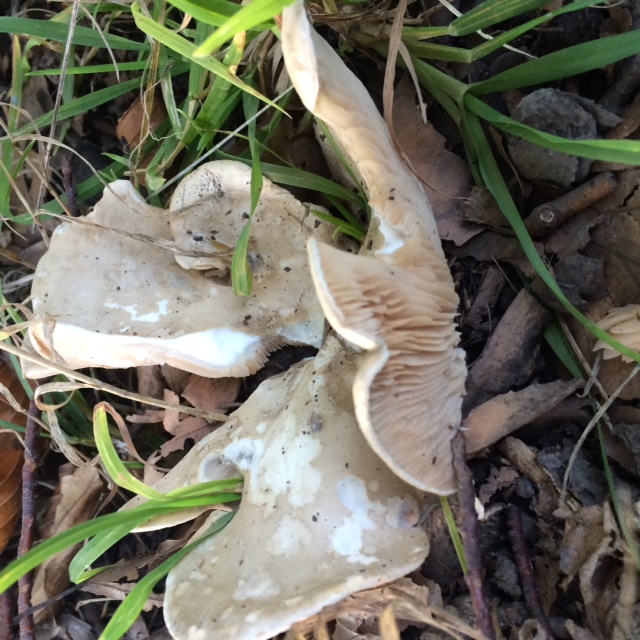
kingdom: Fungi
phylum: Basidiomycota
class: Agaricomycetes
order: Agaricales
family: Entolomataceae
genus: Clitopilus
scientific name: Clitopilus prunulus
